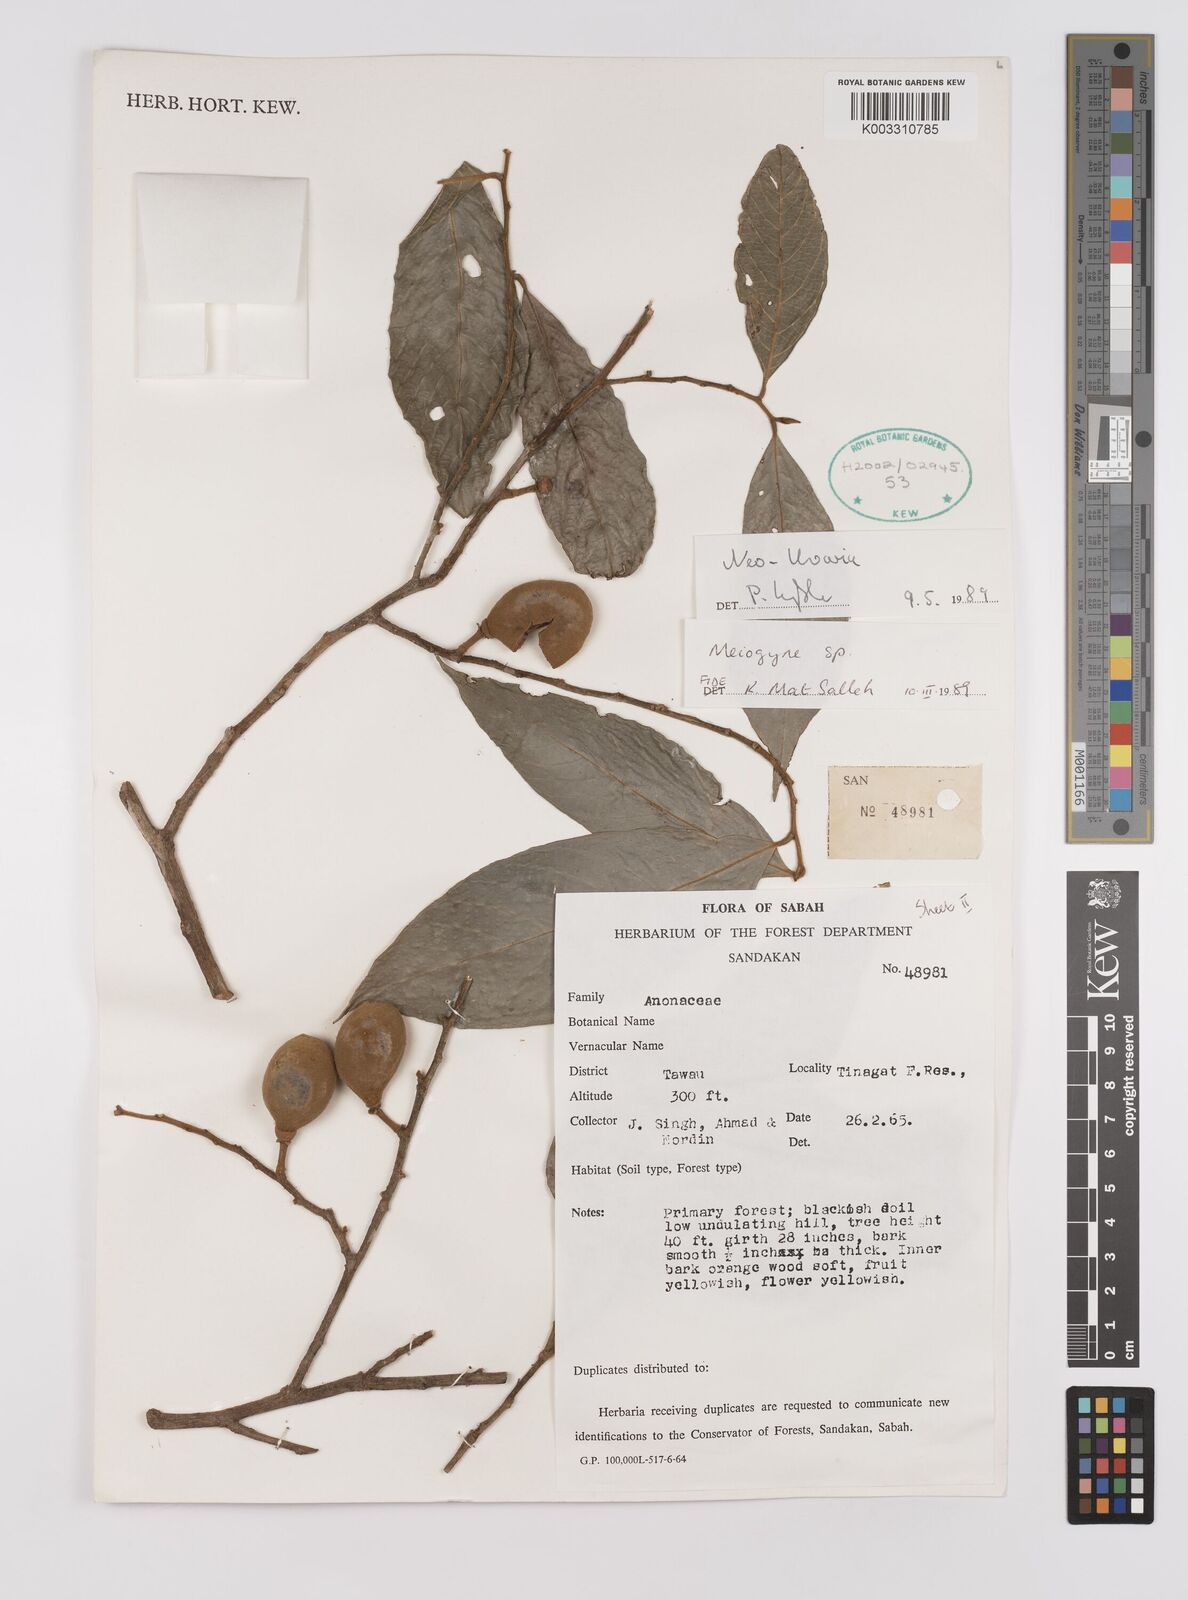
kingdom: Plantae
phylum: Tracheophyta
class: Magnoliopsida
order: Magnoliales
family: Annonaceae
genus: Neo-uvaria
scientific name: Neo-uvaria
